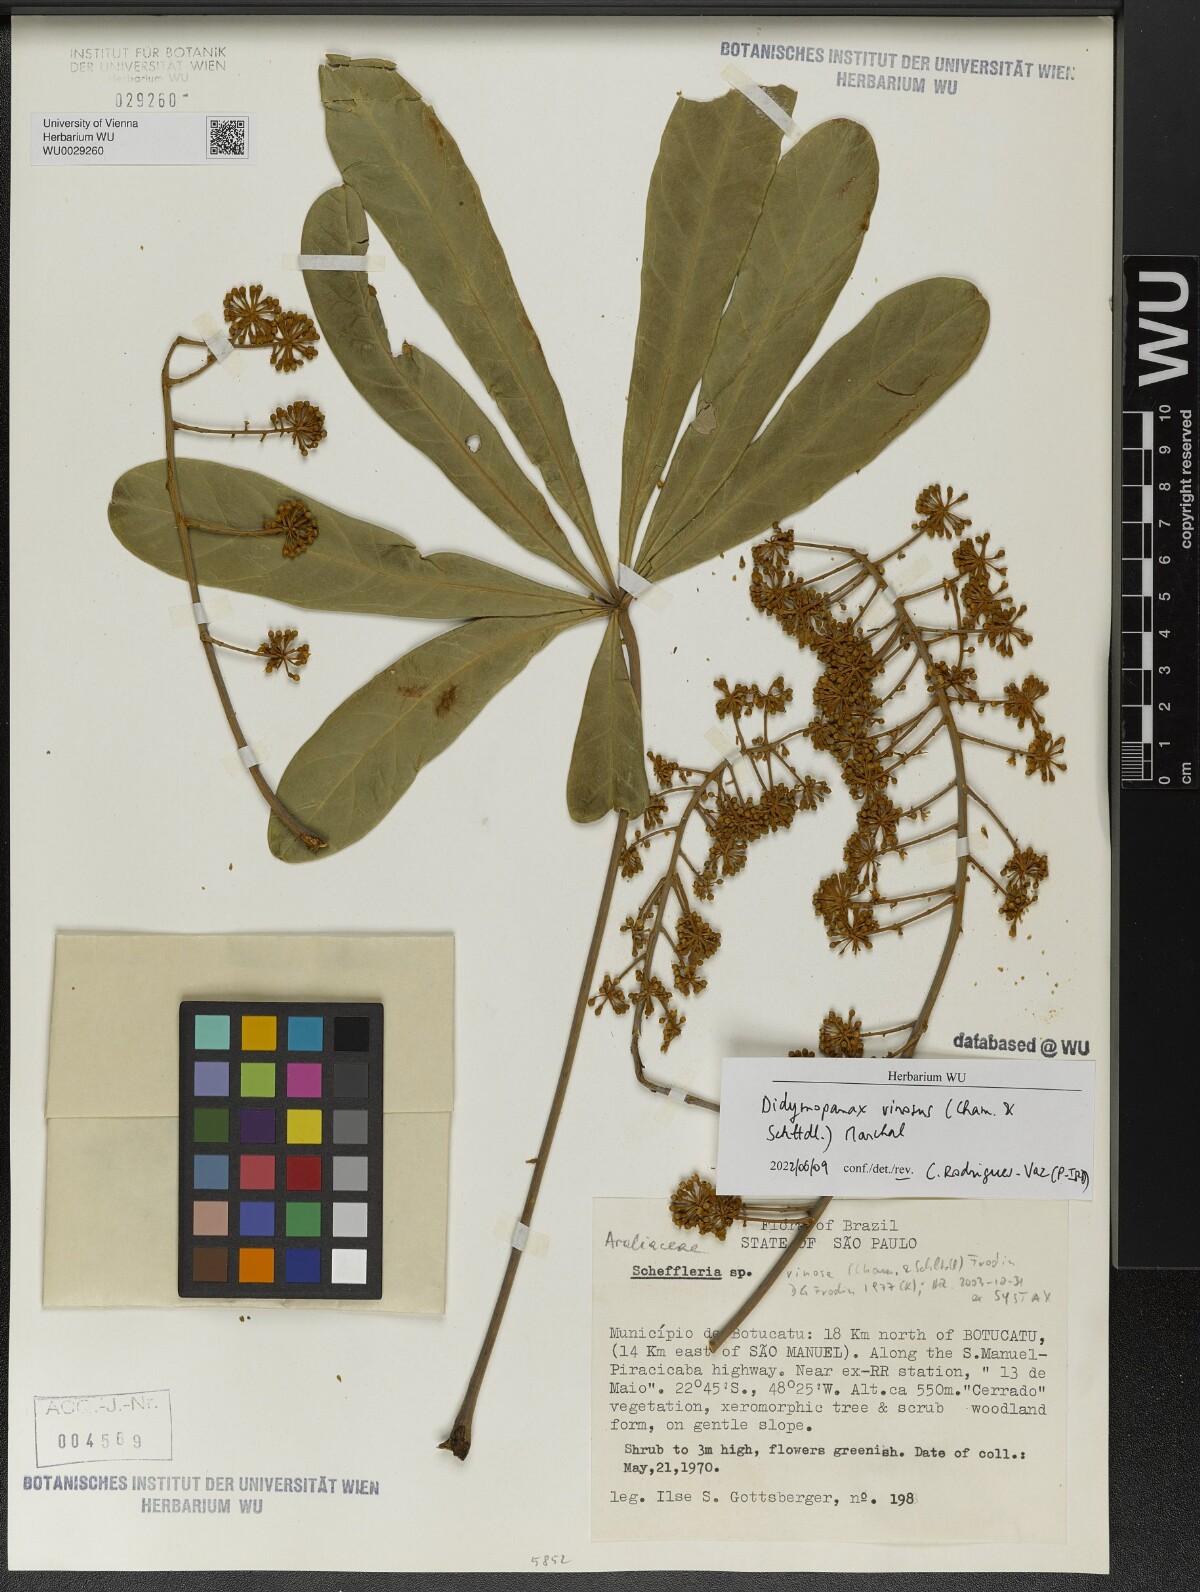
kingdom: Plantae
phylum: Tracheophyta
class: Magnoliopsida
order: Apiales
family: Araliaceae
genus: Didymopanax
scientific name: Didymopanax vinosus
